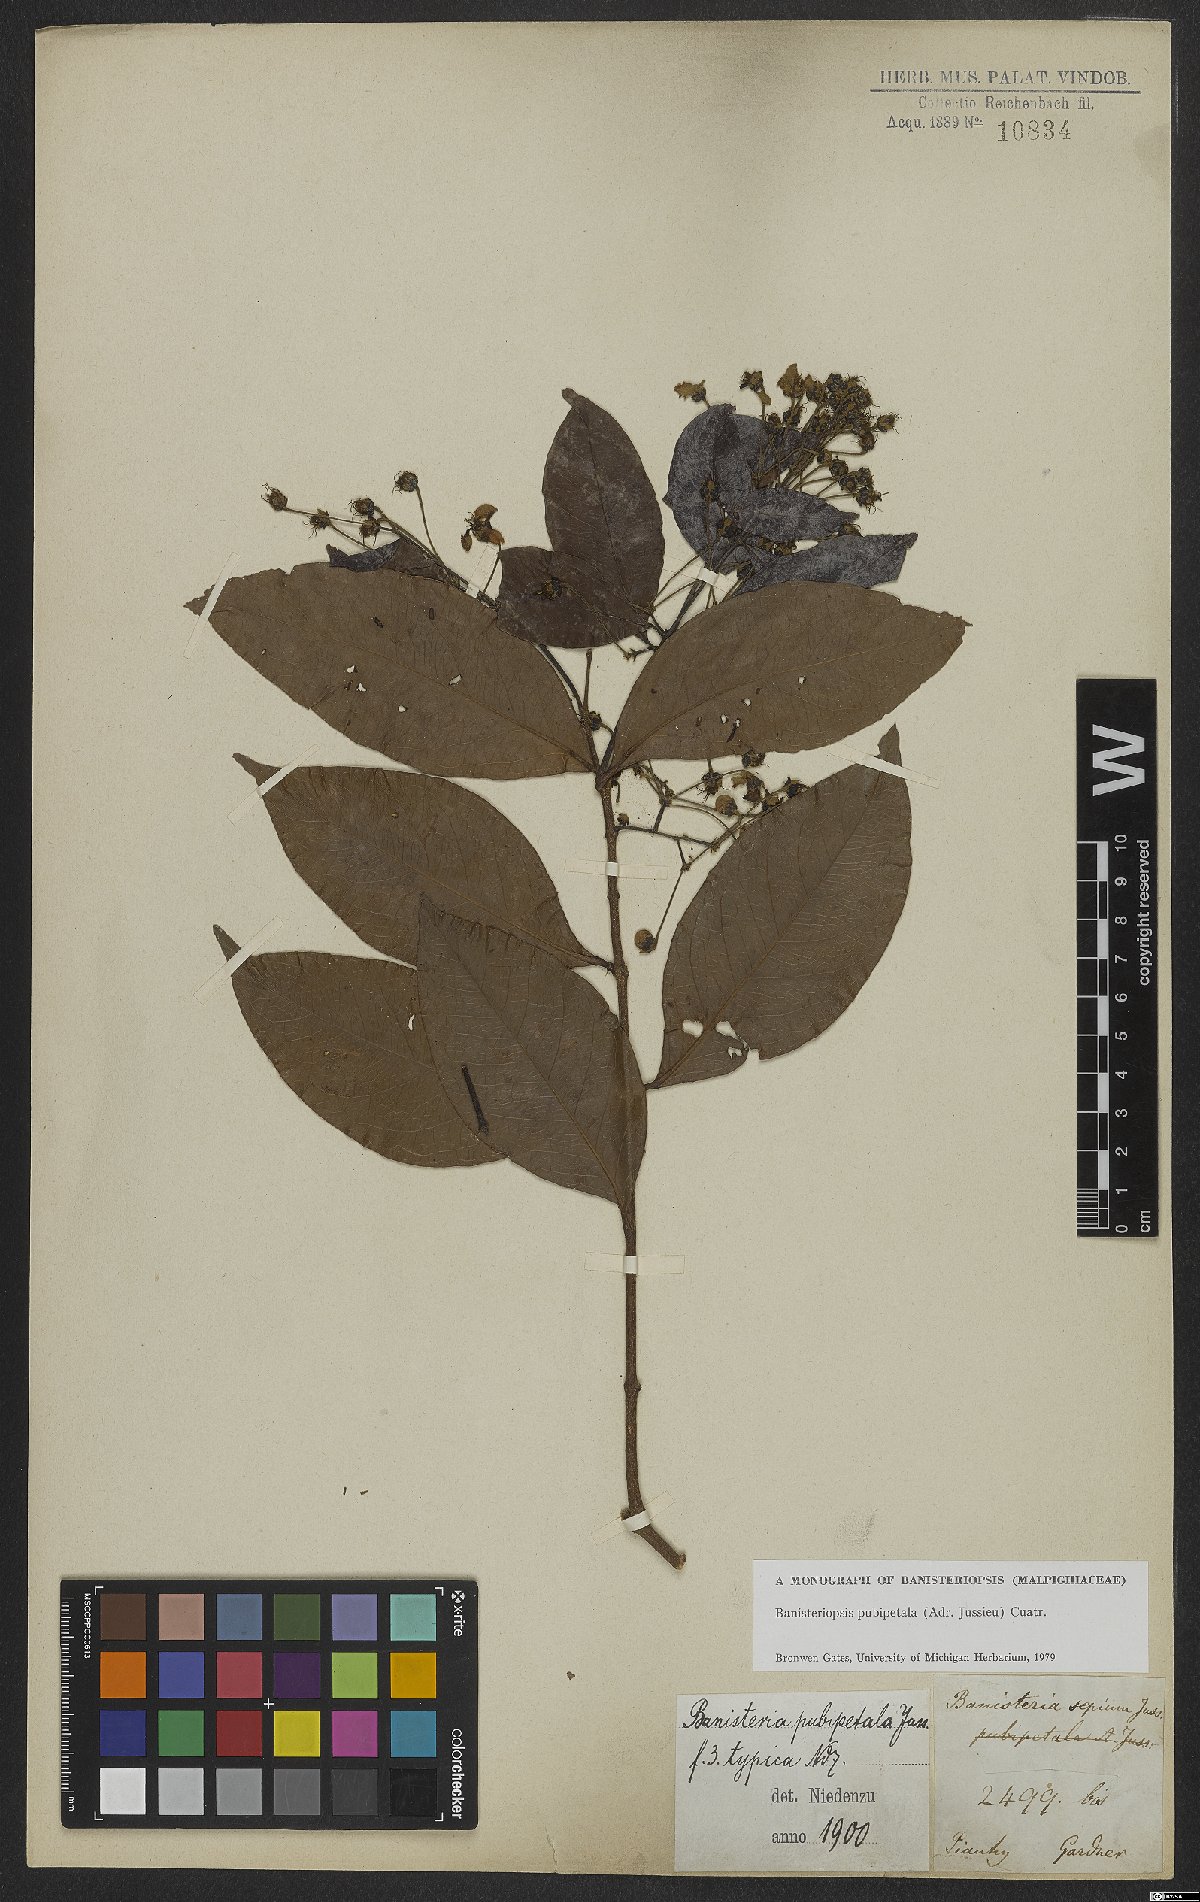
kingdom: Plantae
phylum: Tracheophyta
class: Magnoliopsida
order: Malpighiales
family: Malpighiaceae
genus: Diplopterys
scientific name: Diplopterys pubipetala
